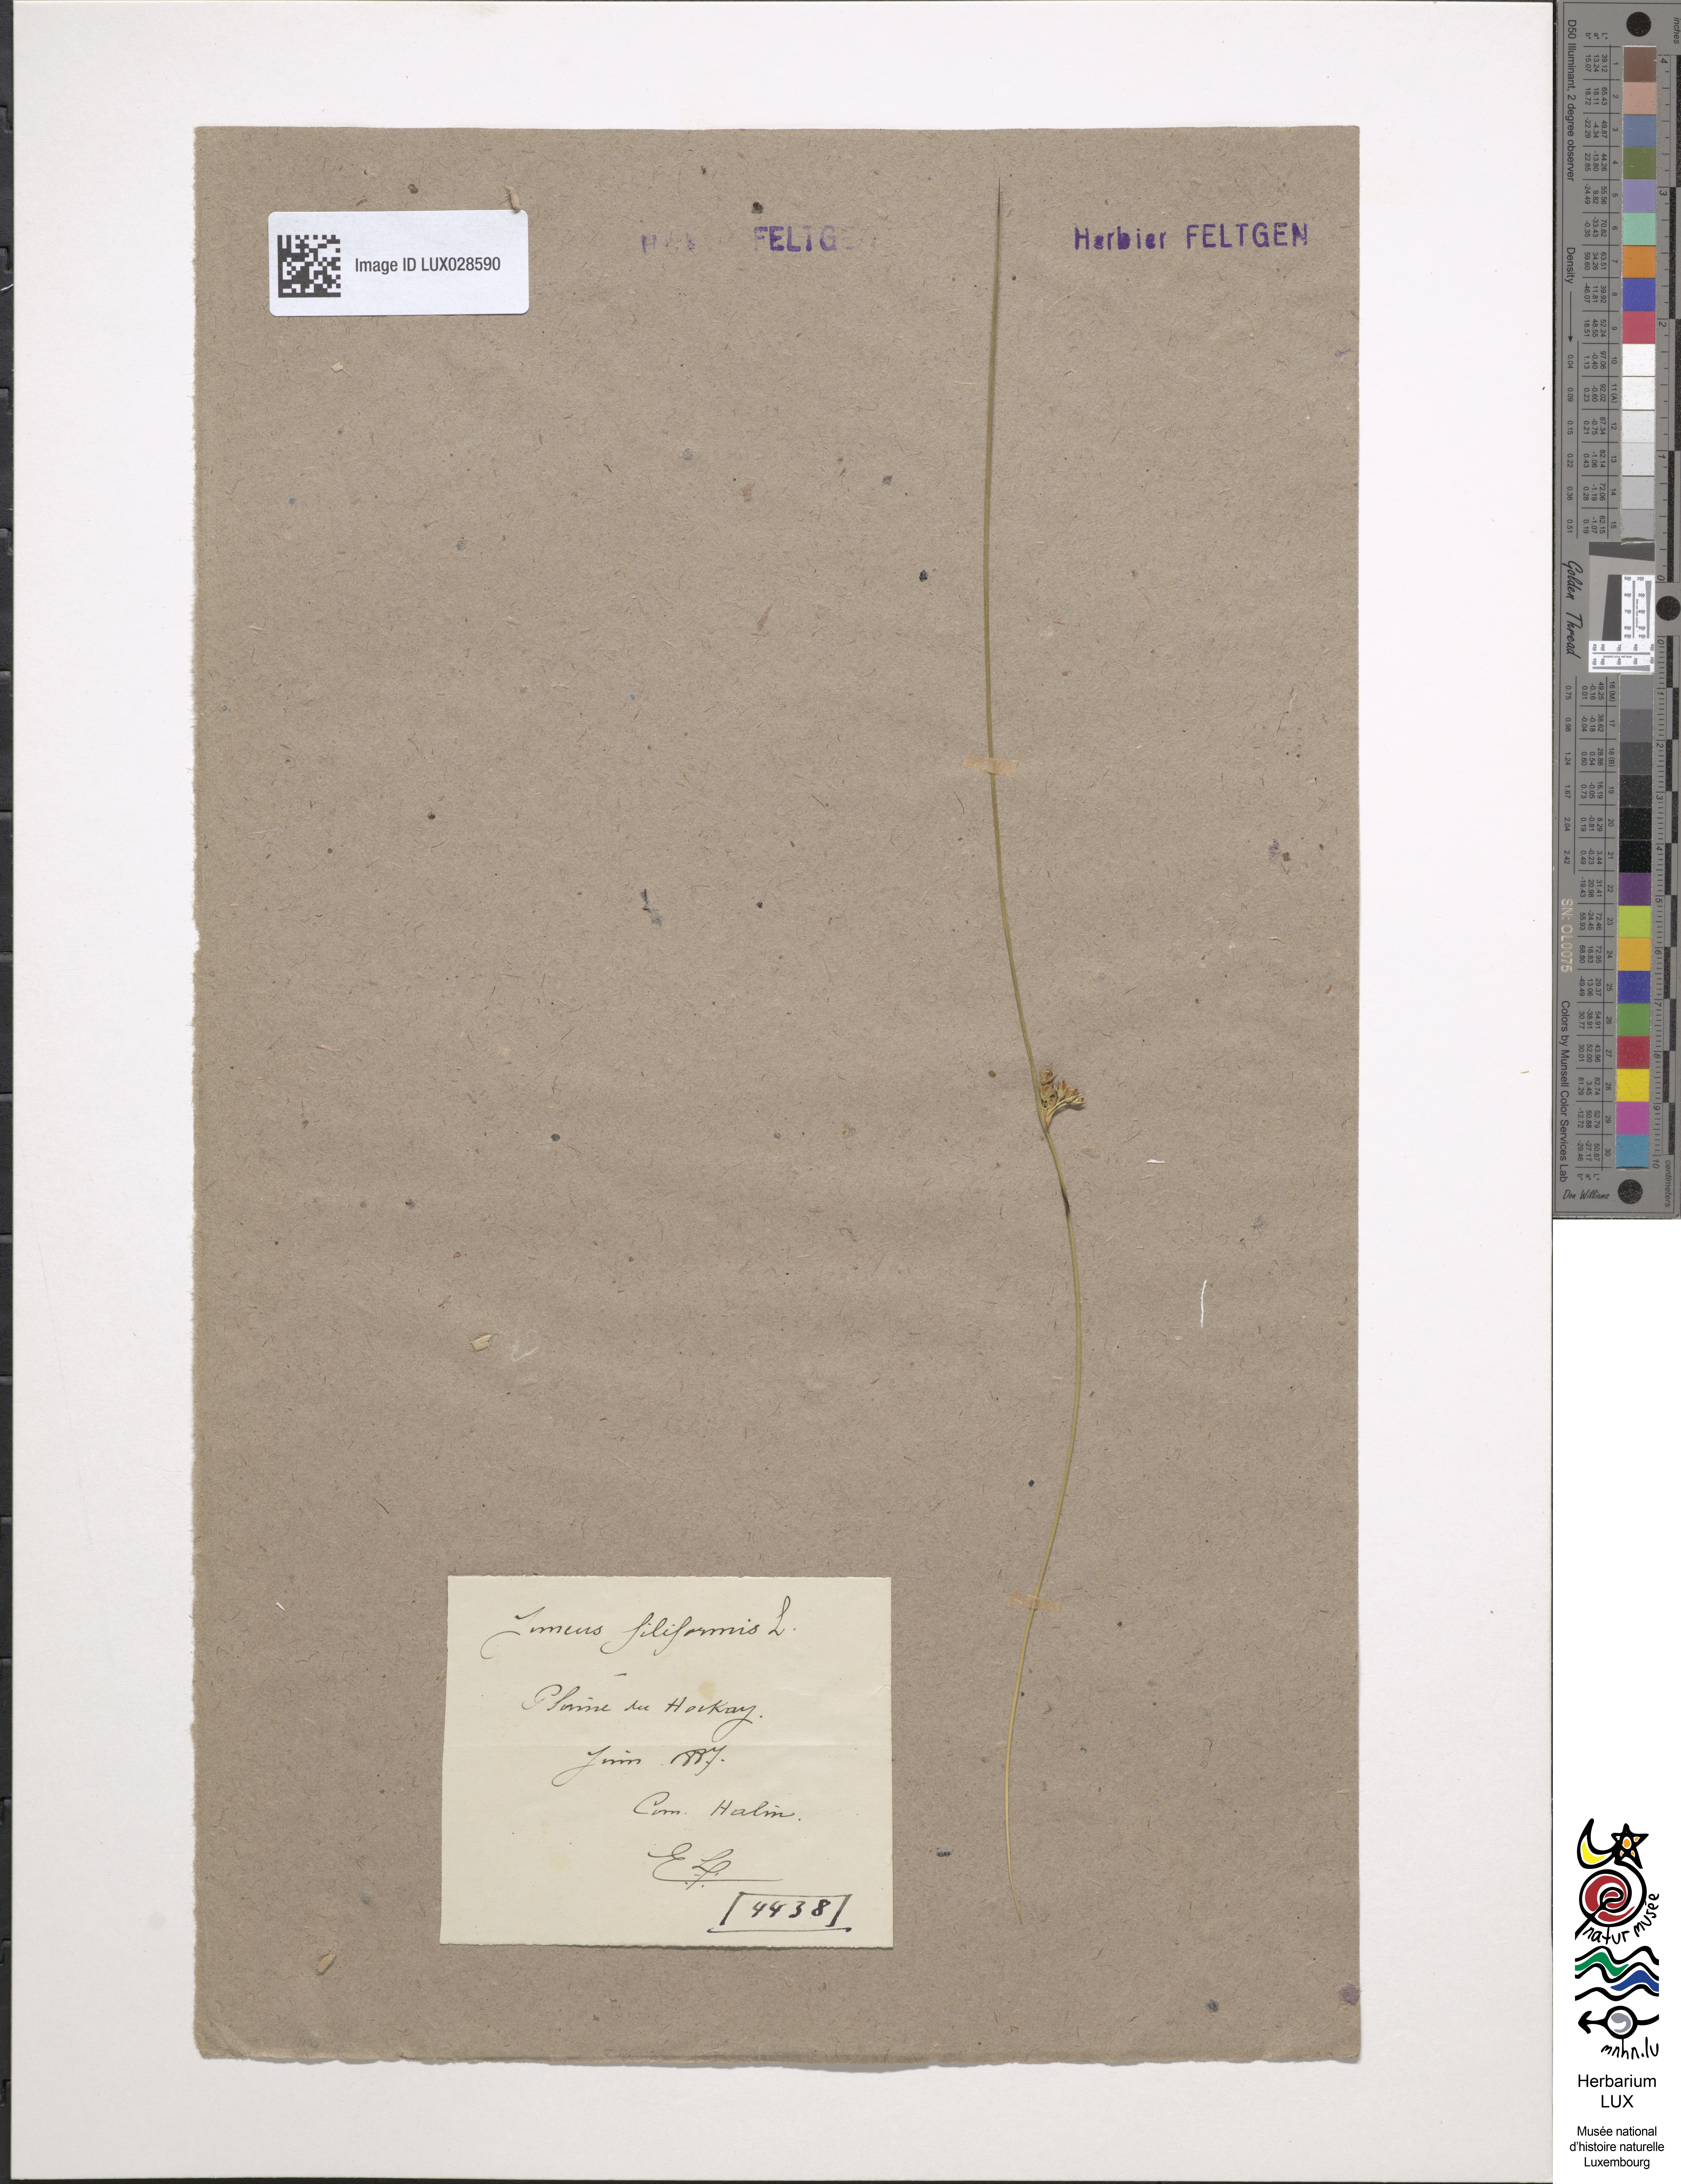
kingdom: Plantae
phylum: Tracheophyta
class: Liliopsida
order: Poales
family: Juncaceae
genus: Juncus
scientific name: Juncus filiformis
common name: Thread rush
